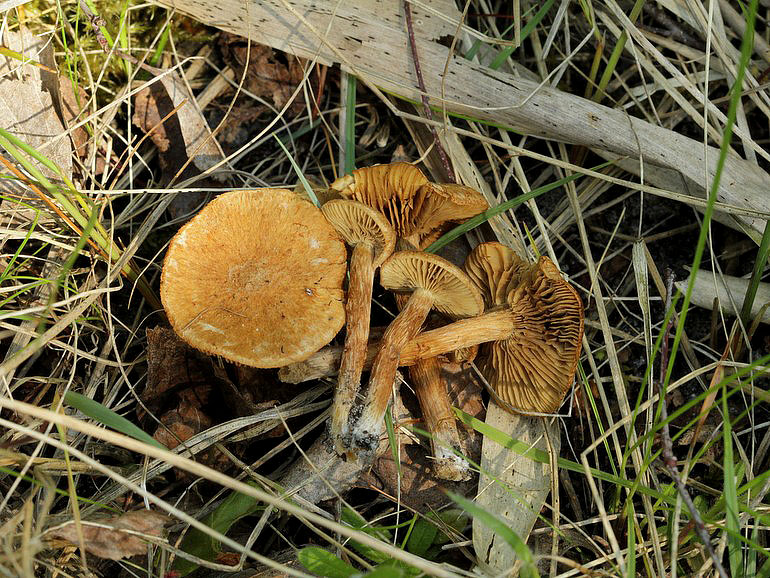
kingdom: Fungi
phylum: Basidiomycota
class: Agaricomycetes
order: Agaricales
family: Inocybaceae
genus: Inocybe
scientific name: Inocybe dulcamara
